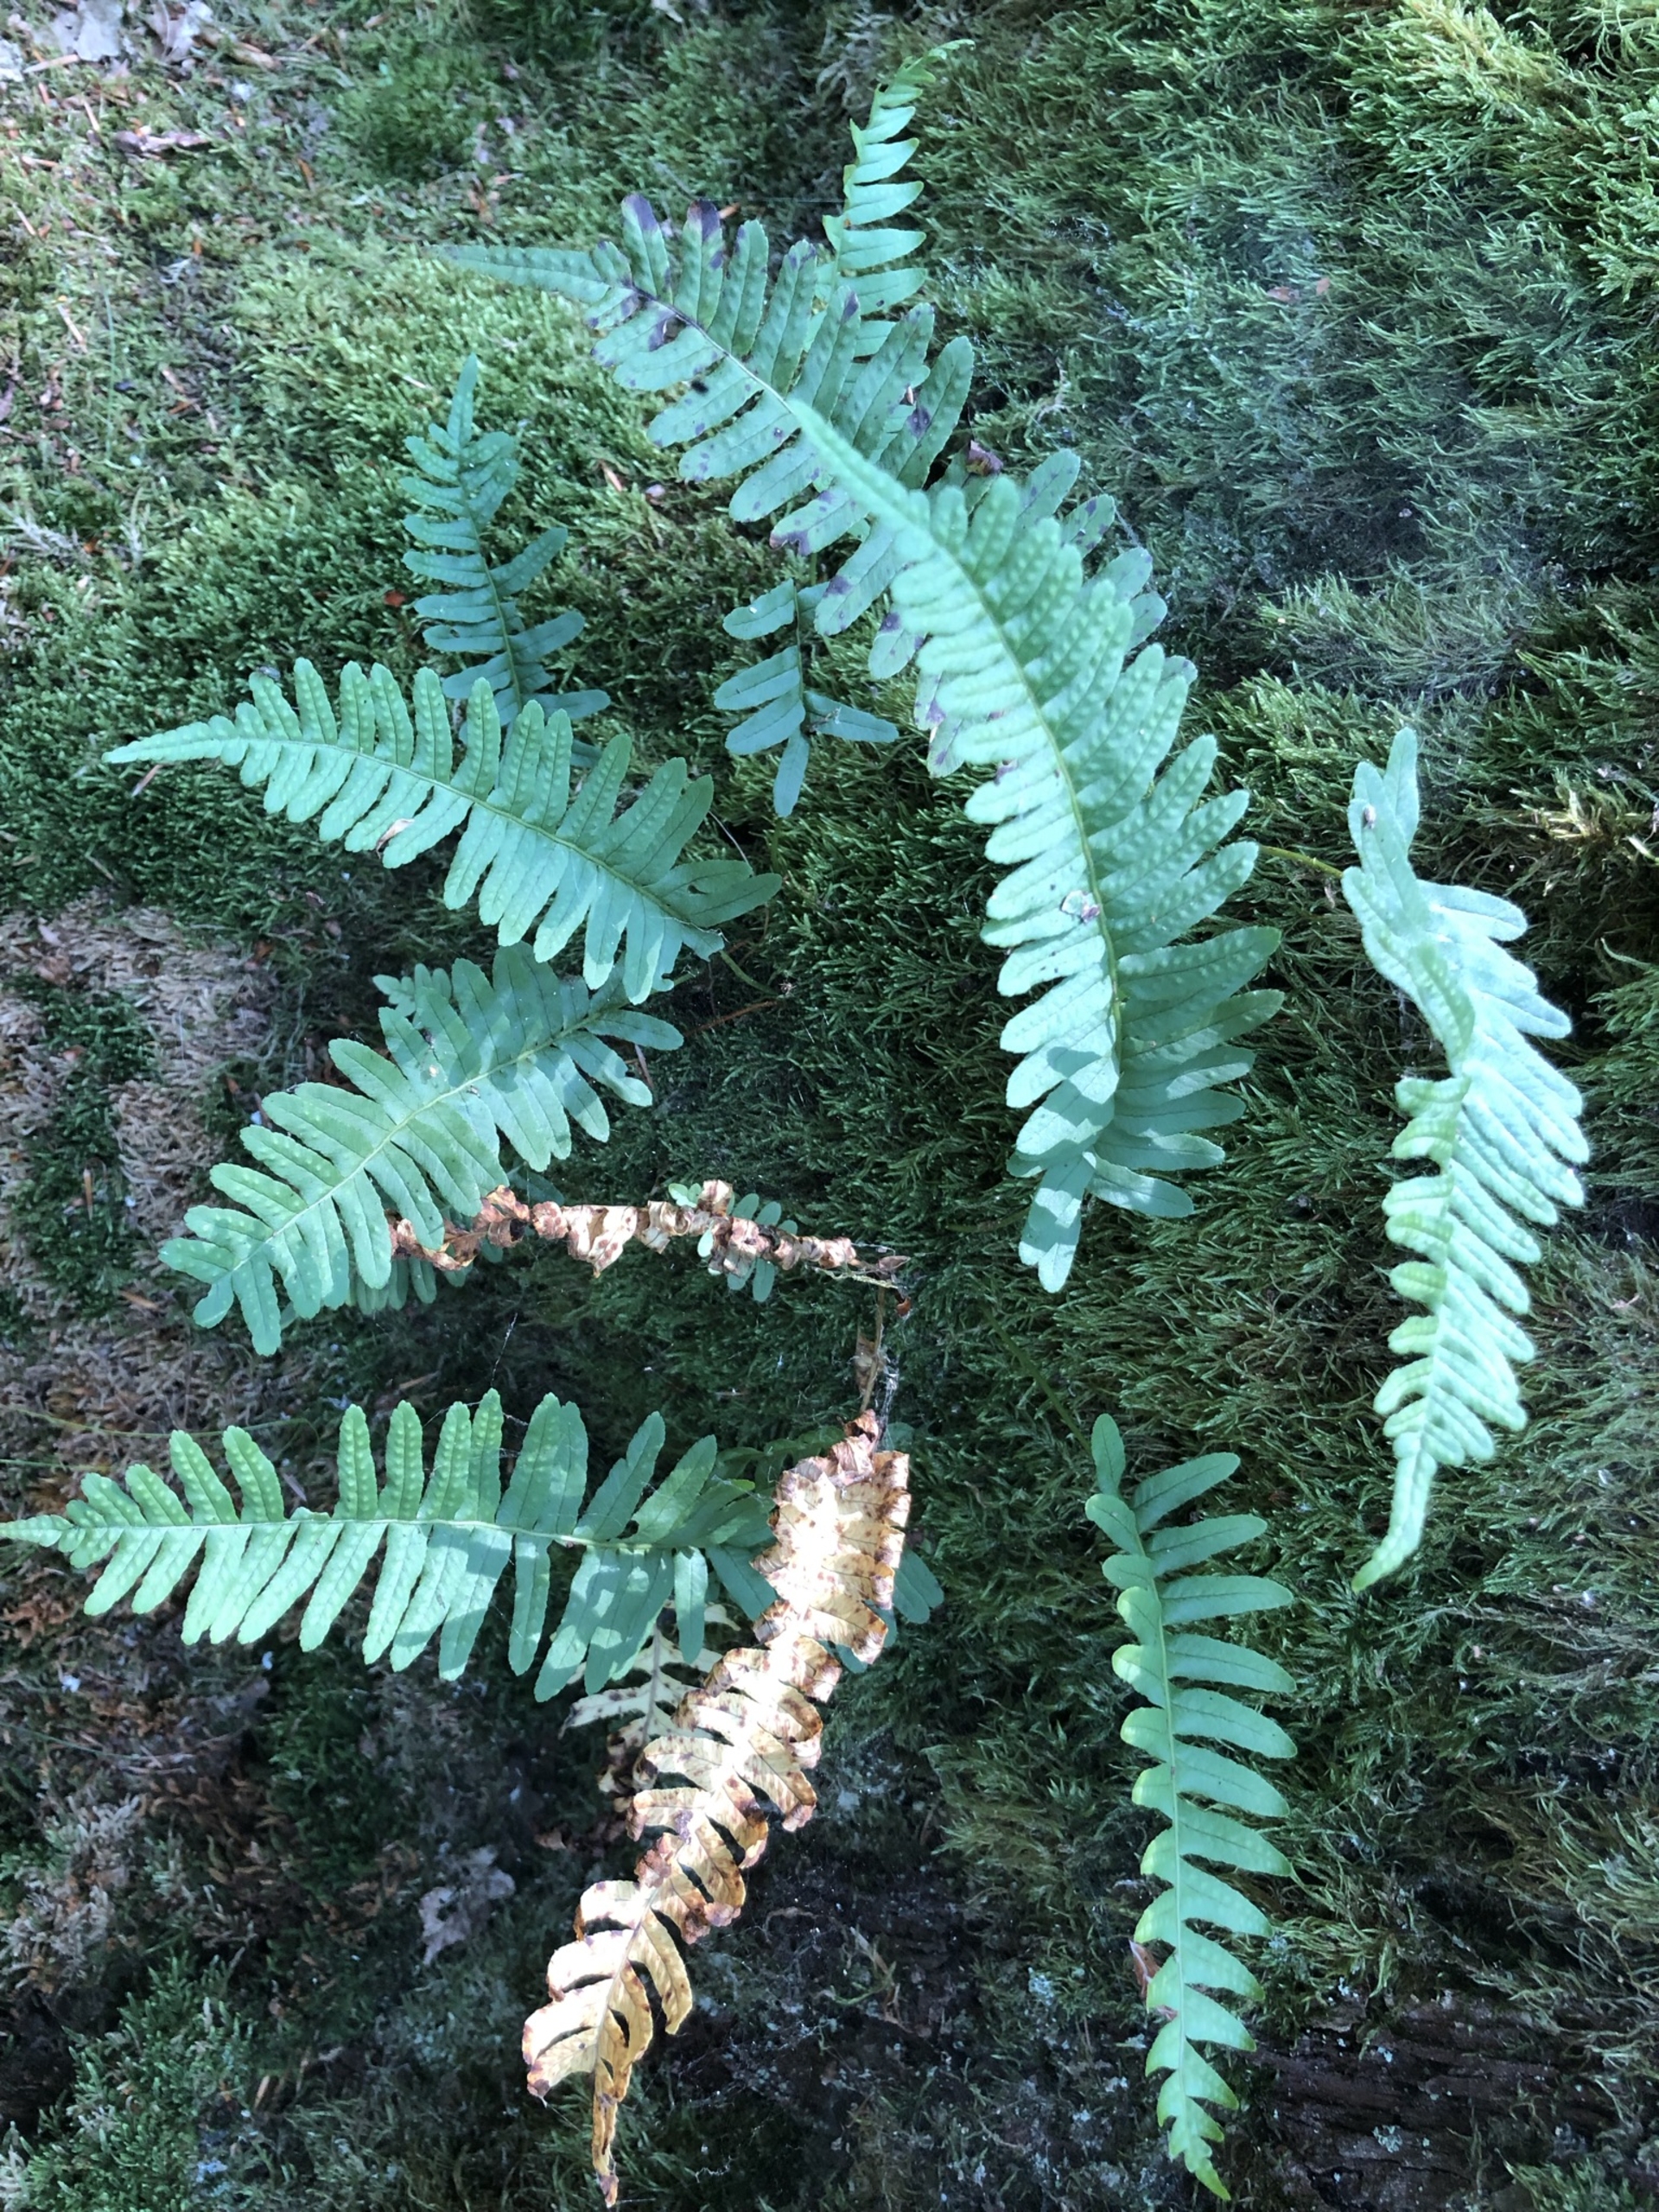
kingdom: Plantae
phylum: Tracheophyta
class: Polypodiopsida
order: Polypodiales
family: Polypodiaceae
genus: Polypodium
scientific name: Polypodium vulgare
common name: Almindelig engelsød
